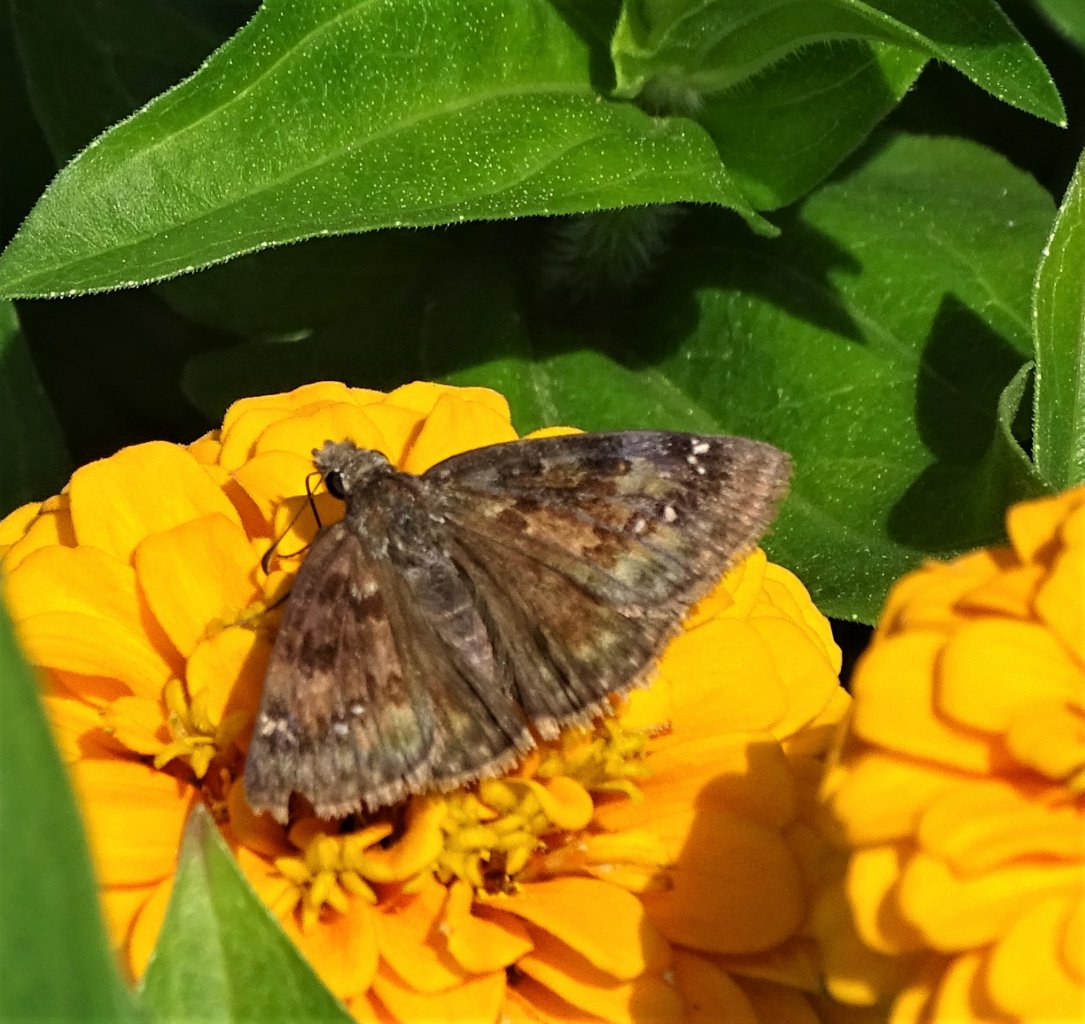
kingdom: Animalia
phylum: Arthropoda
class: Insecta
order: Lepidoptera
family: Hesperiidae
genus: Gesta
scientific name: Gesta
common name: Wild Indigo Duskywing
